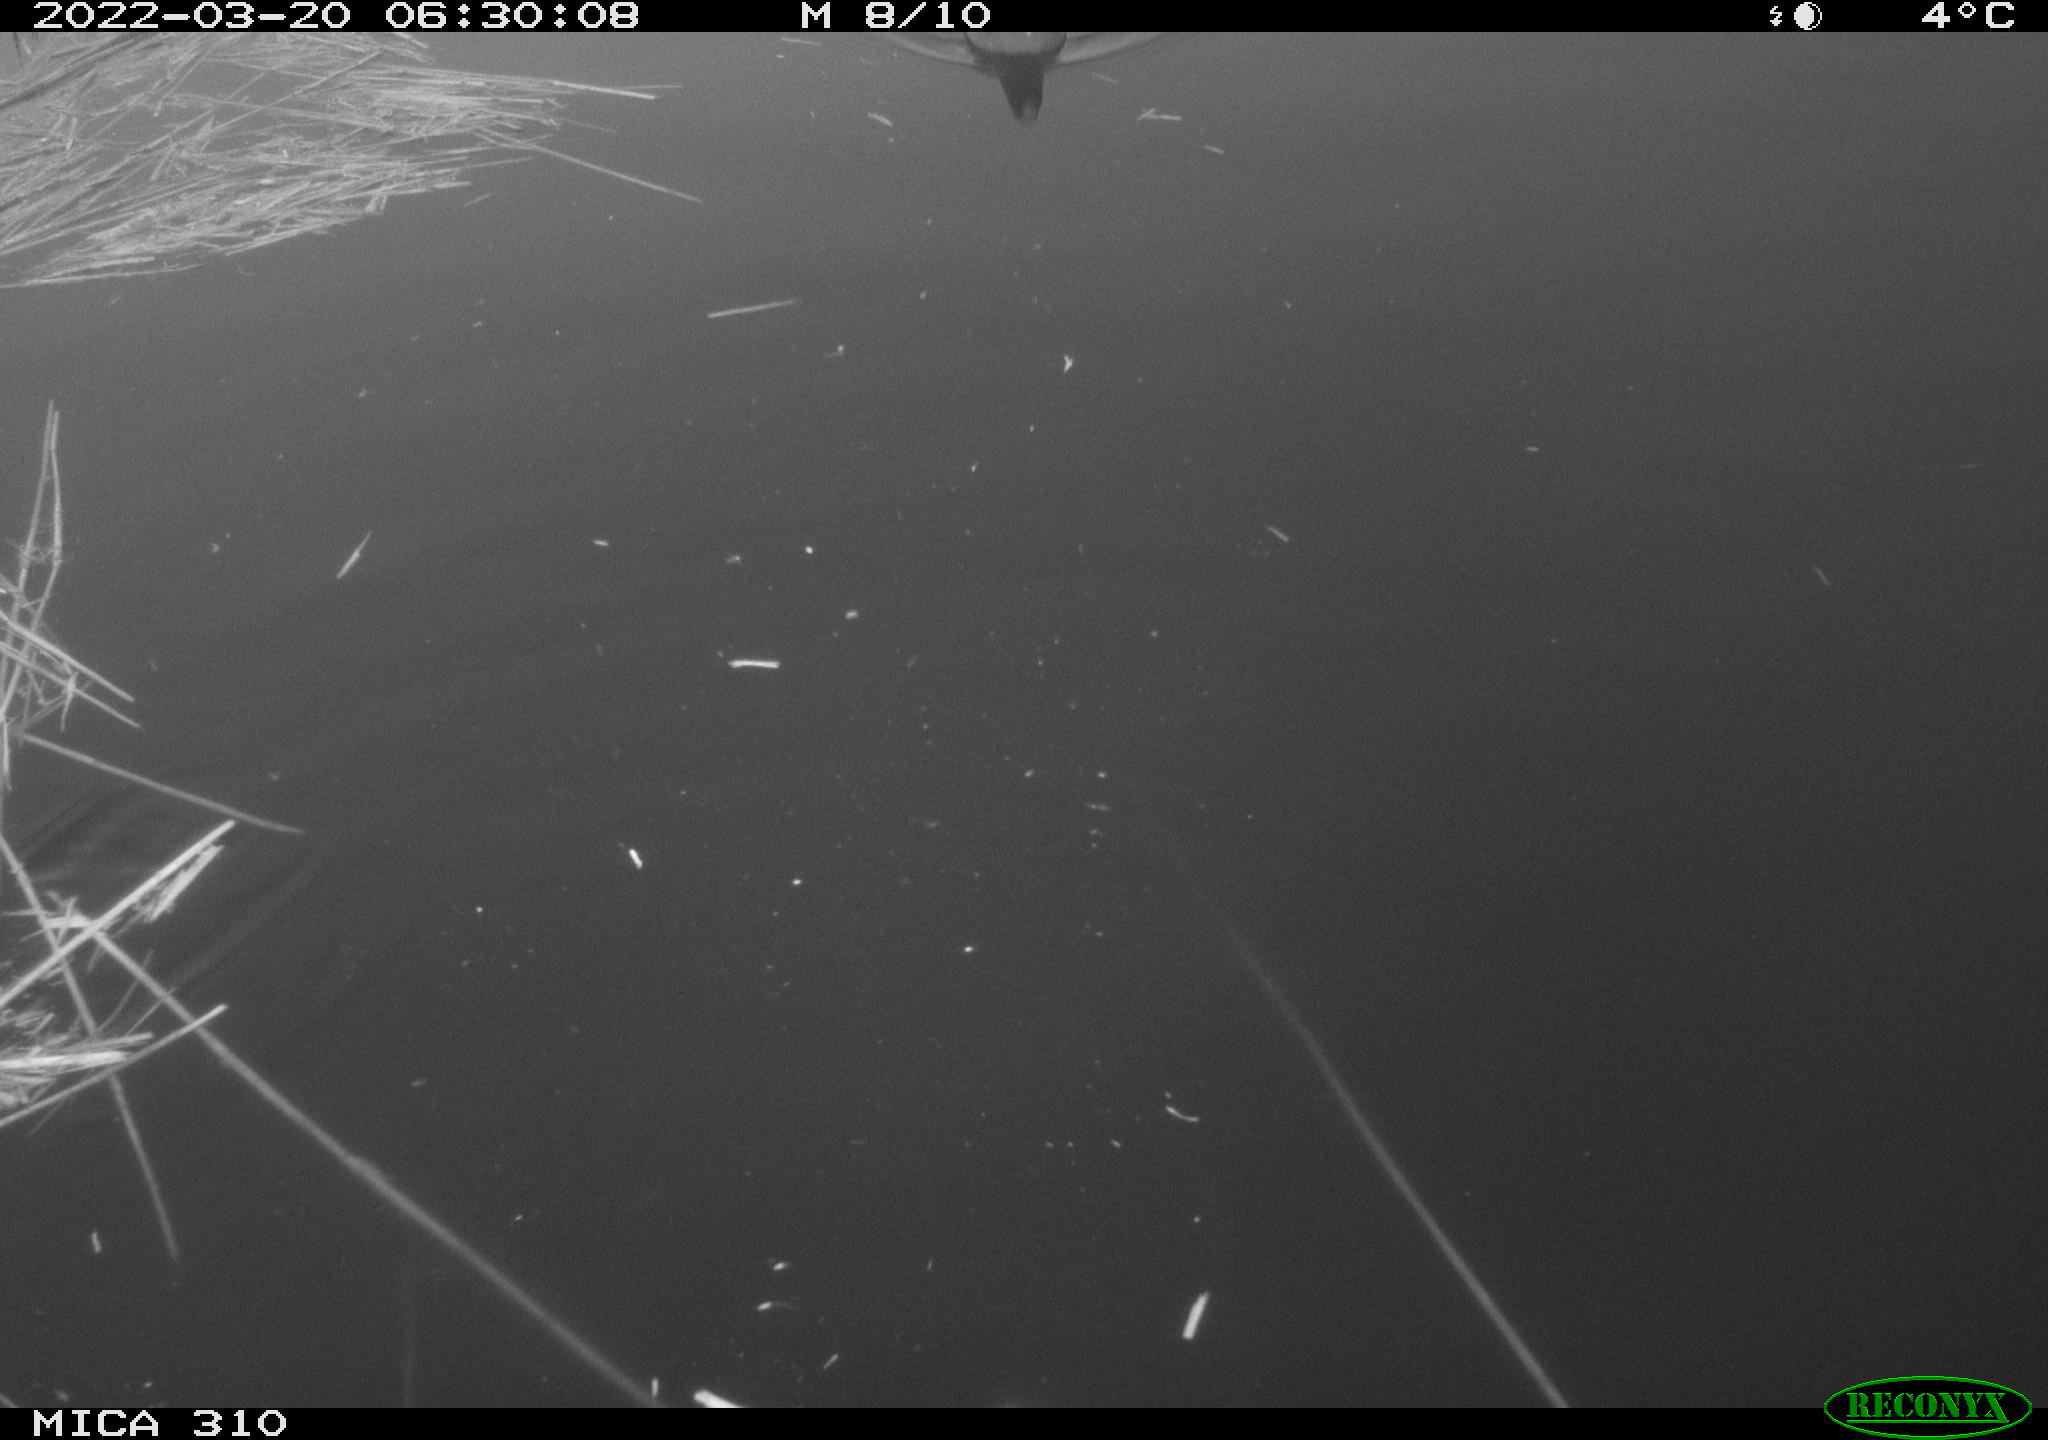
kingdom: Animalia
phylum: Chordata
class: Aves
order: Gruiformes
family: Rallidae
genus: Gallinula
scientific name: Gallinula chloropus
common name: Common moorhen
